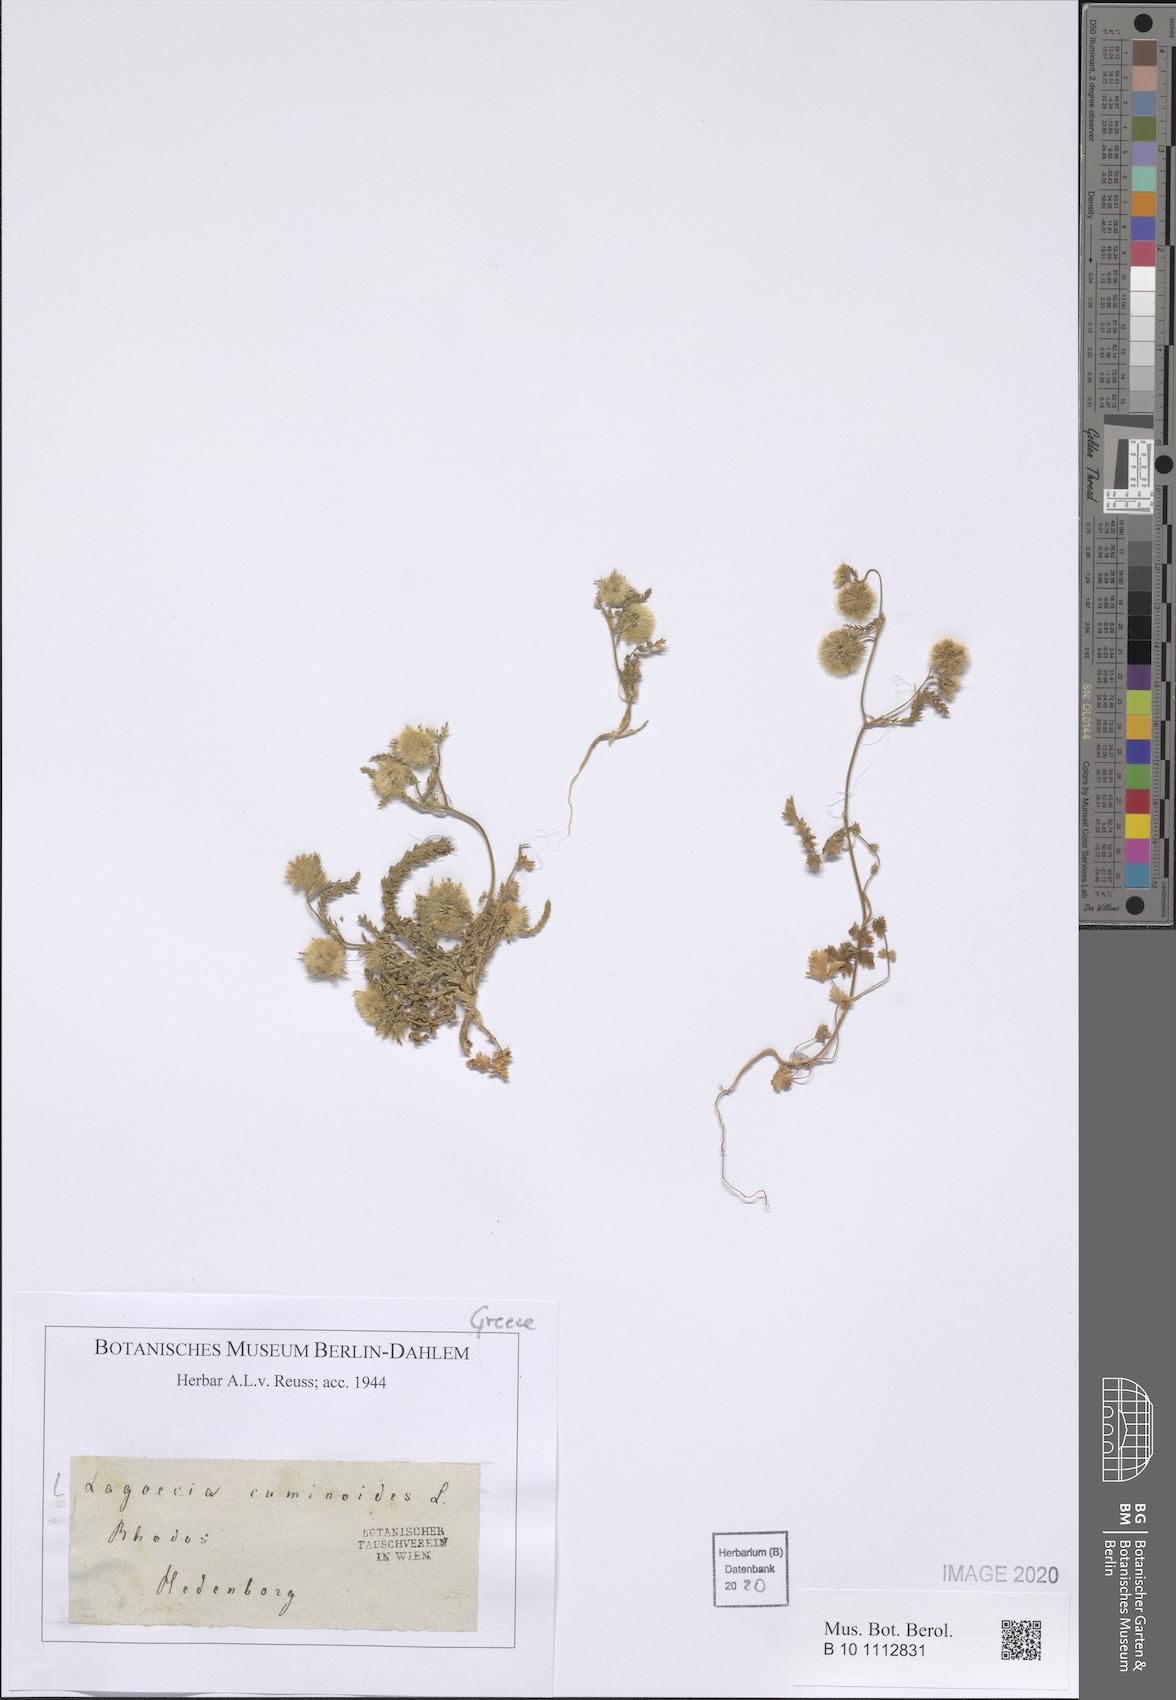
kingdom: Plantae
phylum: Tracheophyta
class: Magnoliopsida
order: Apiales
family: Apiaceae
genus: Lagoecia
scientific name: Lagoecia cuminoides
